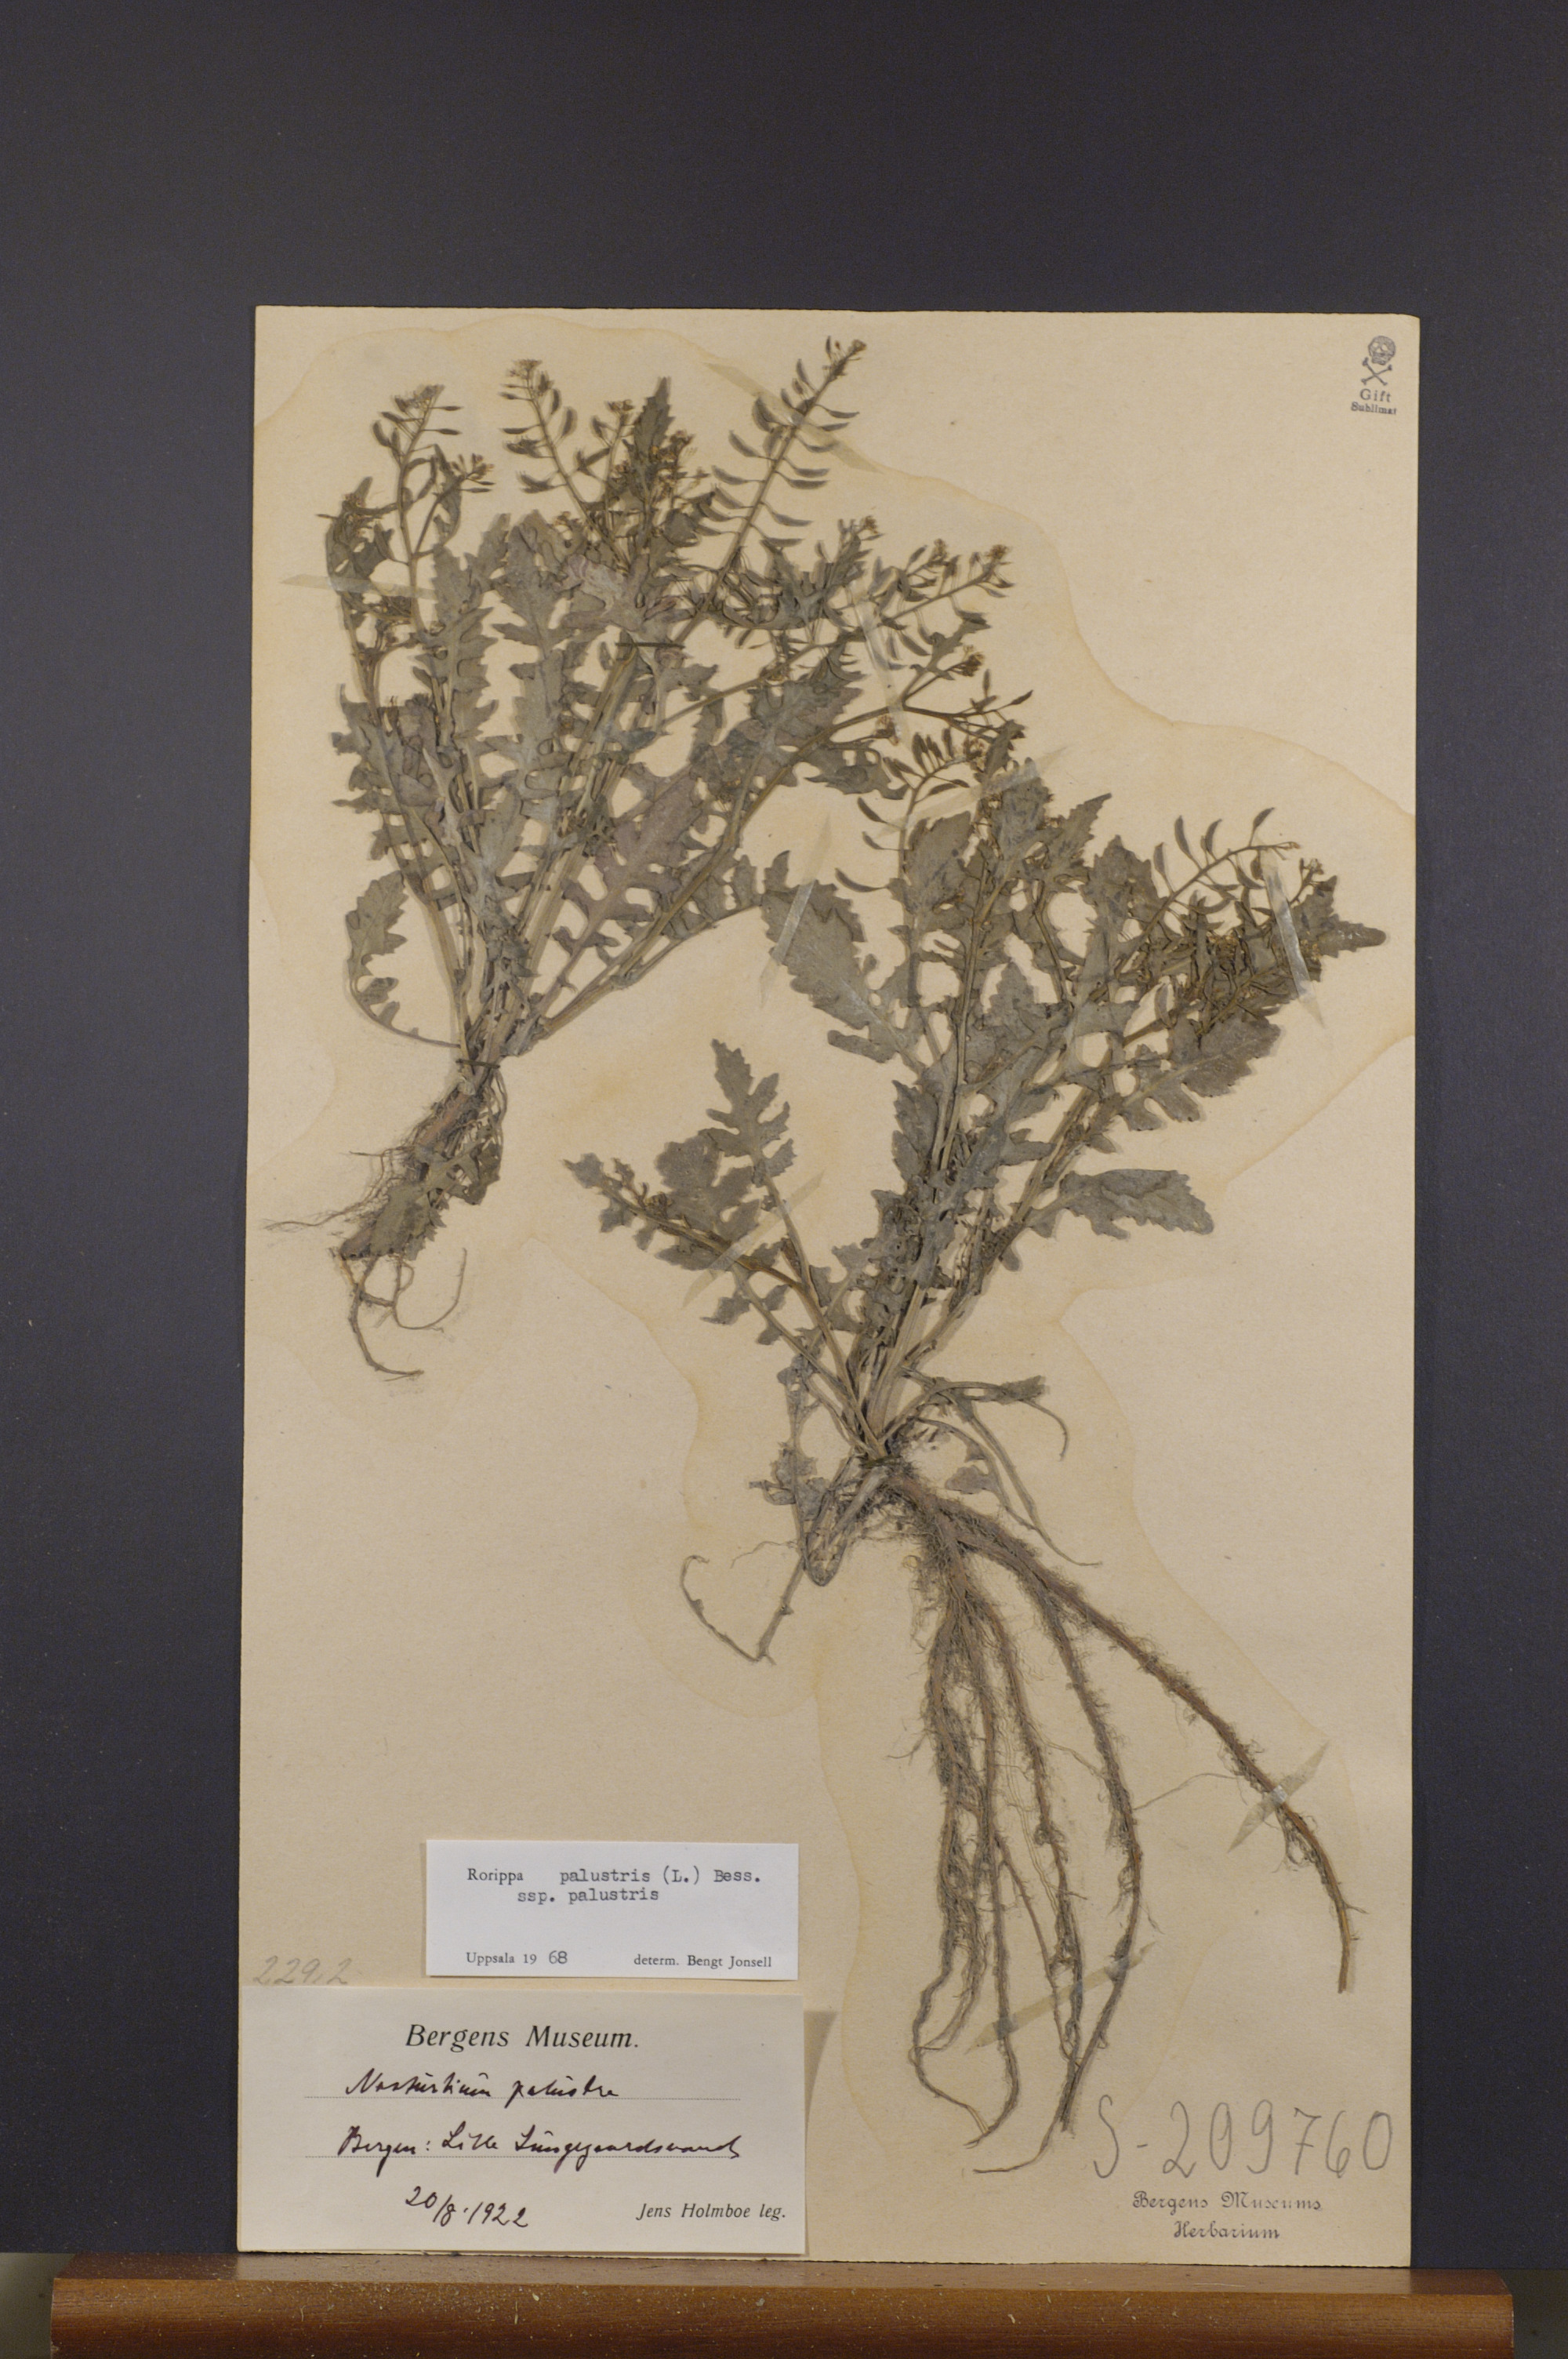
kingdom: Plantae
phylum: Tracheophyta
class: Magnoliopsida
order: Brassicales
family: Brassicaceae
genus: Rorippa
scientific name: Rorippa palustris
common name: Marsh yellow-cress
